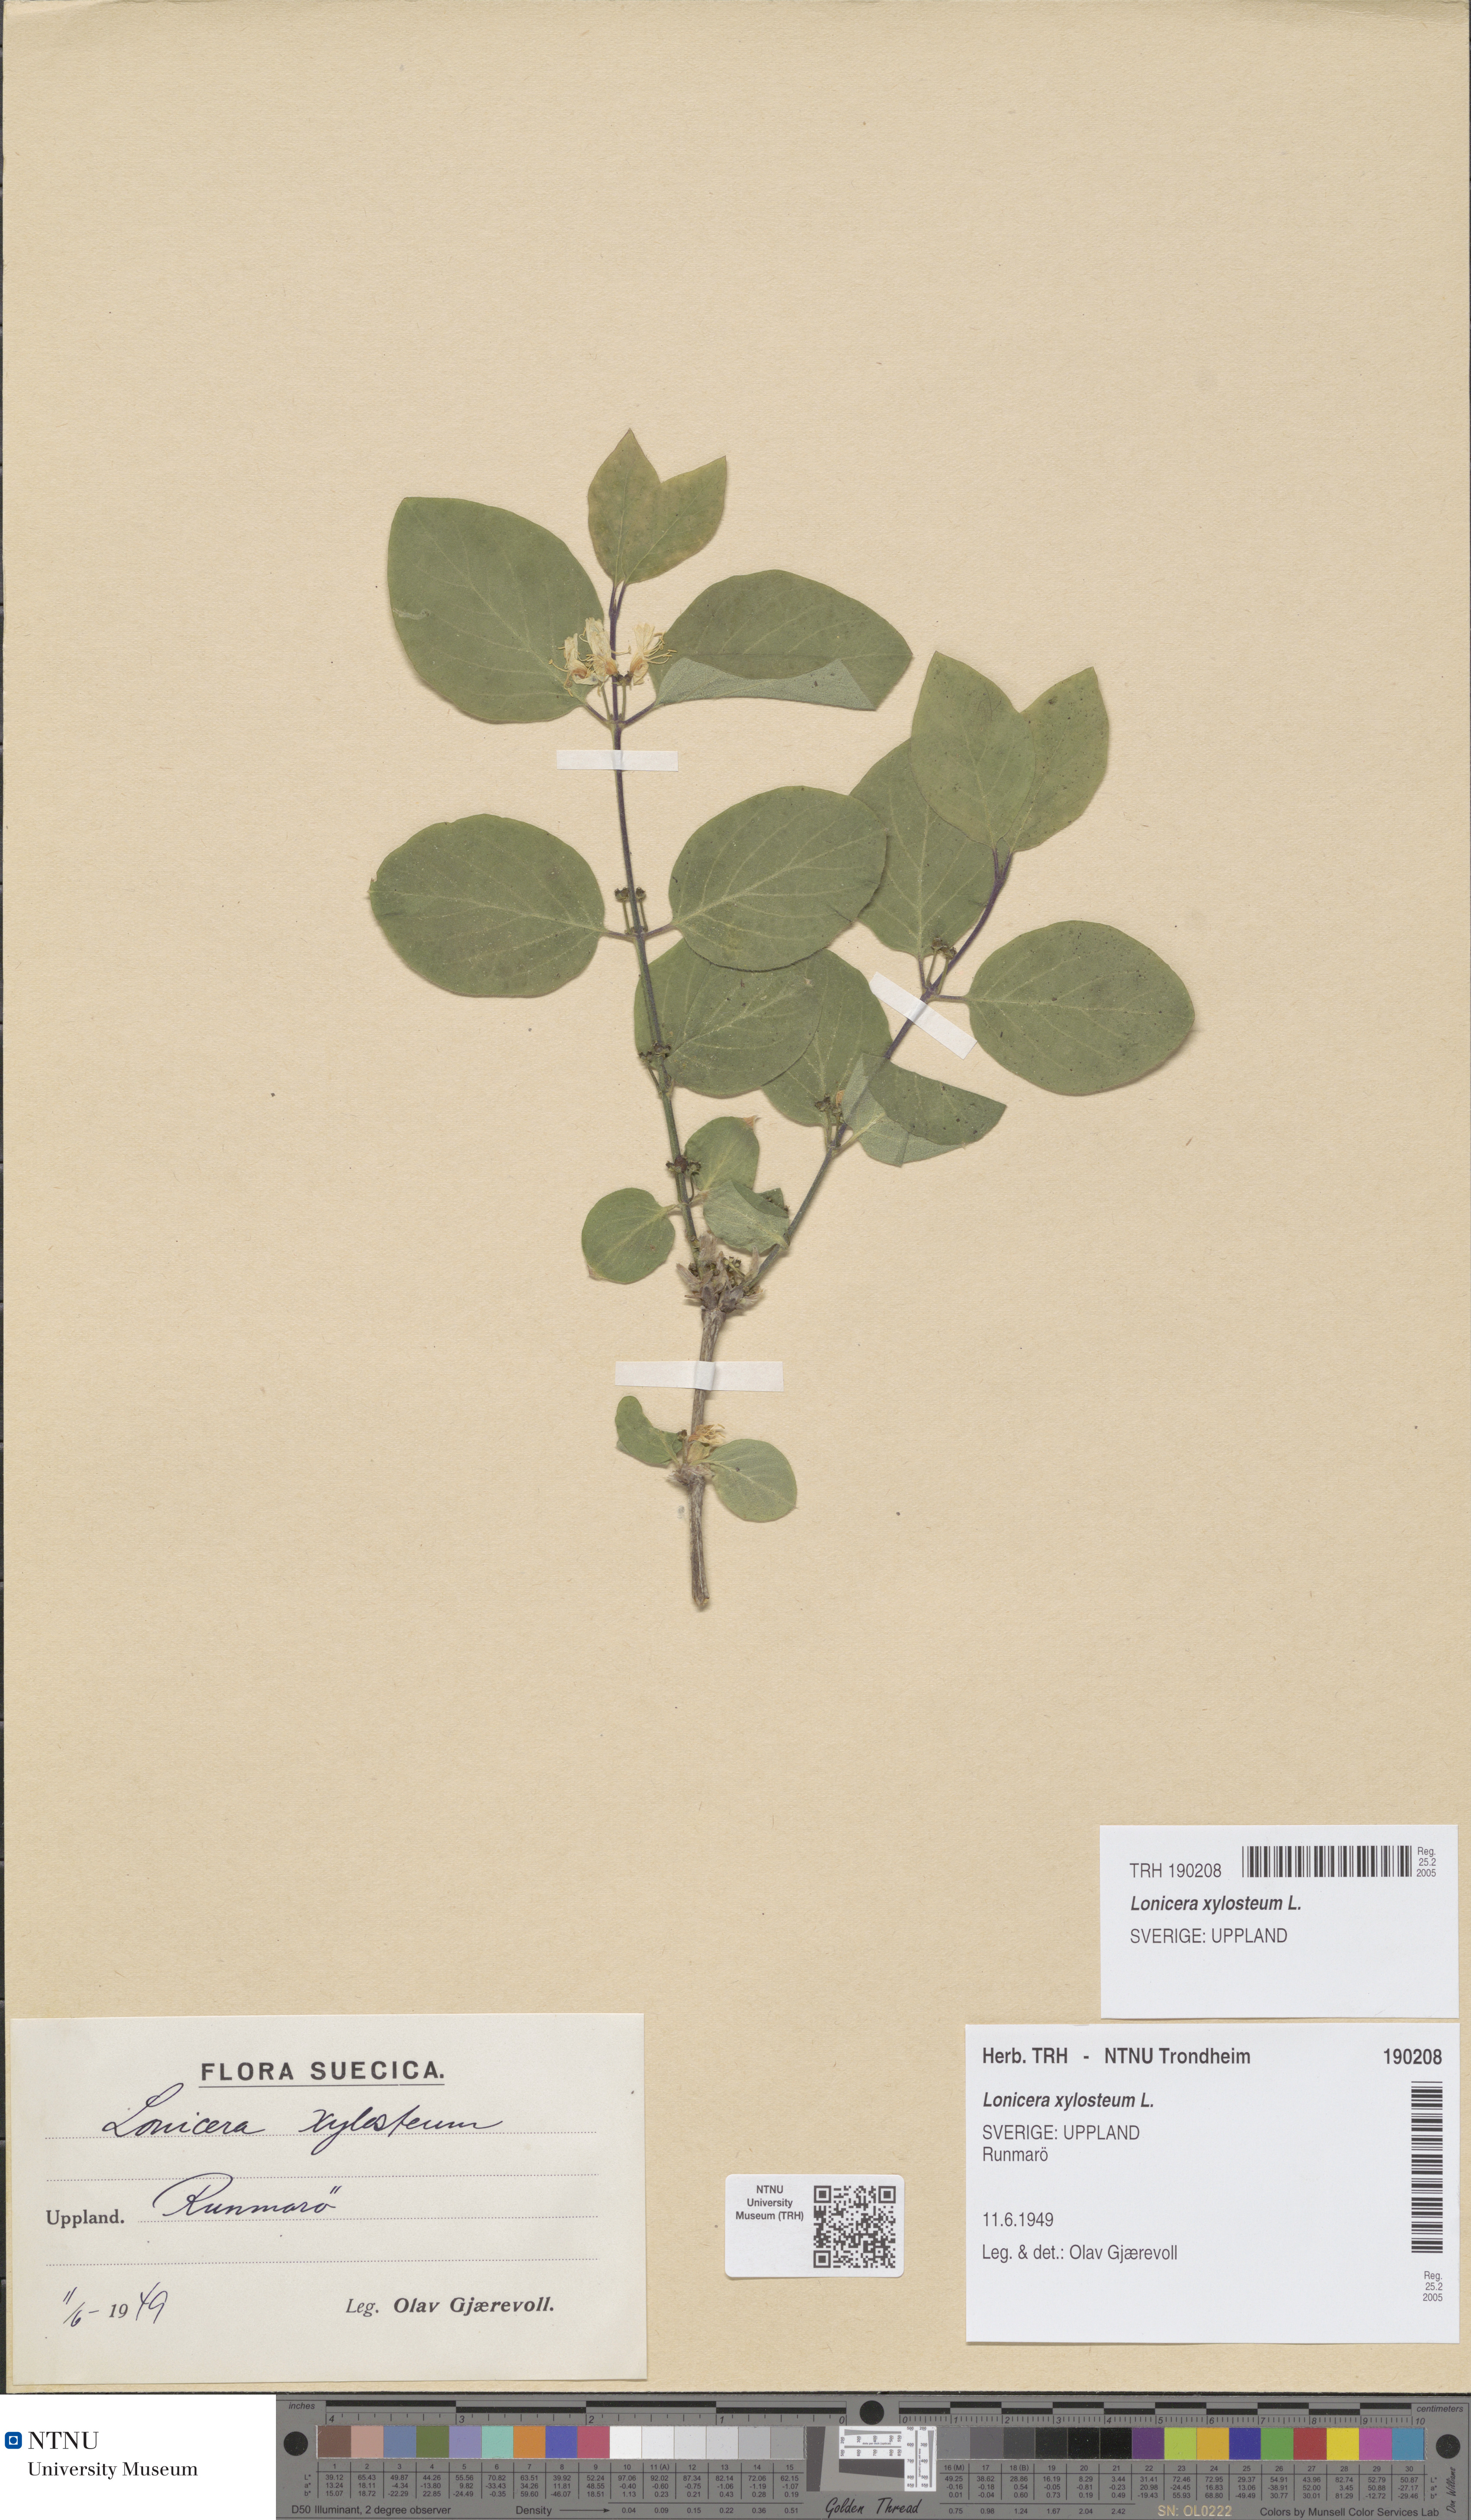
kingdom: Plantae
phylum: Tracheophyta
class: Magnoliopsida
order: Dipsacales
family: Caprifoliaceae
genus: Lonicera
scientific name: Lonicera xylosteum
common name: Fly honeysuckle
